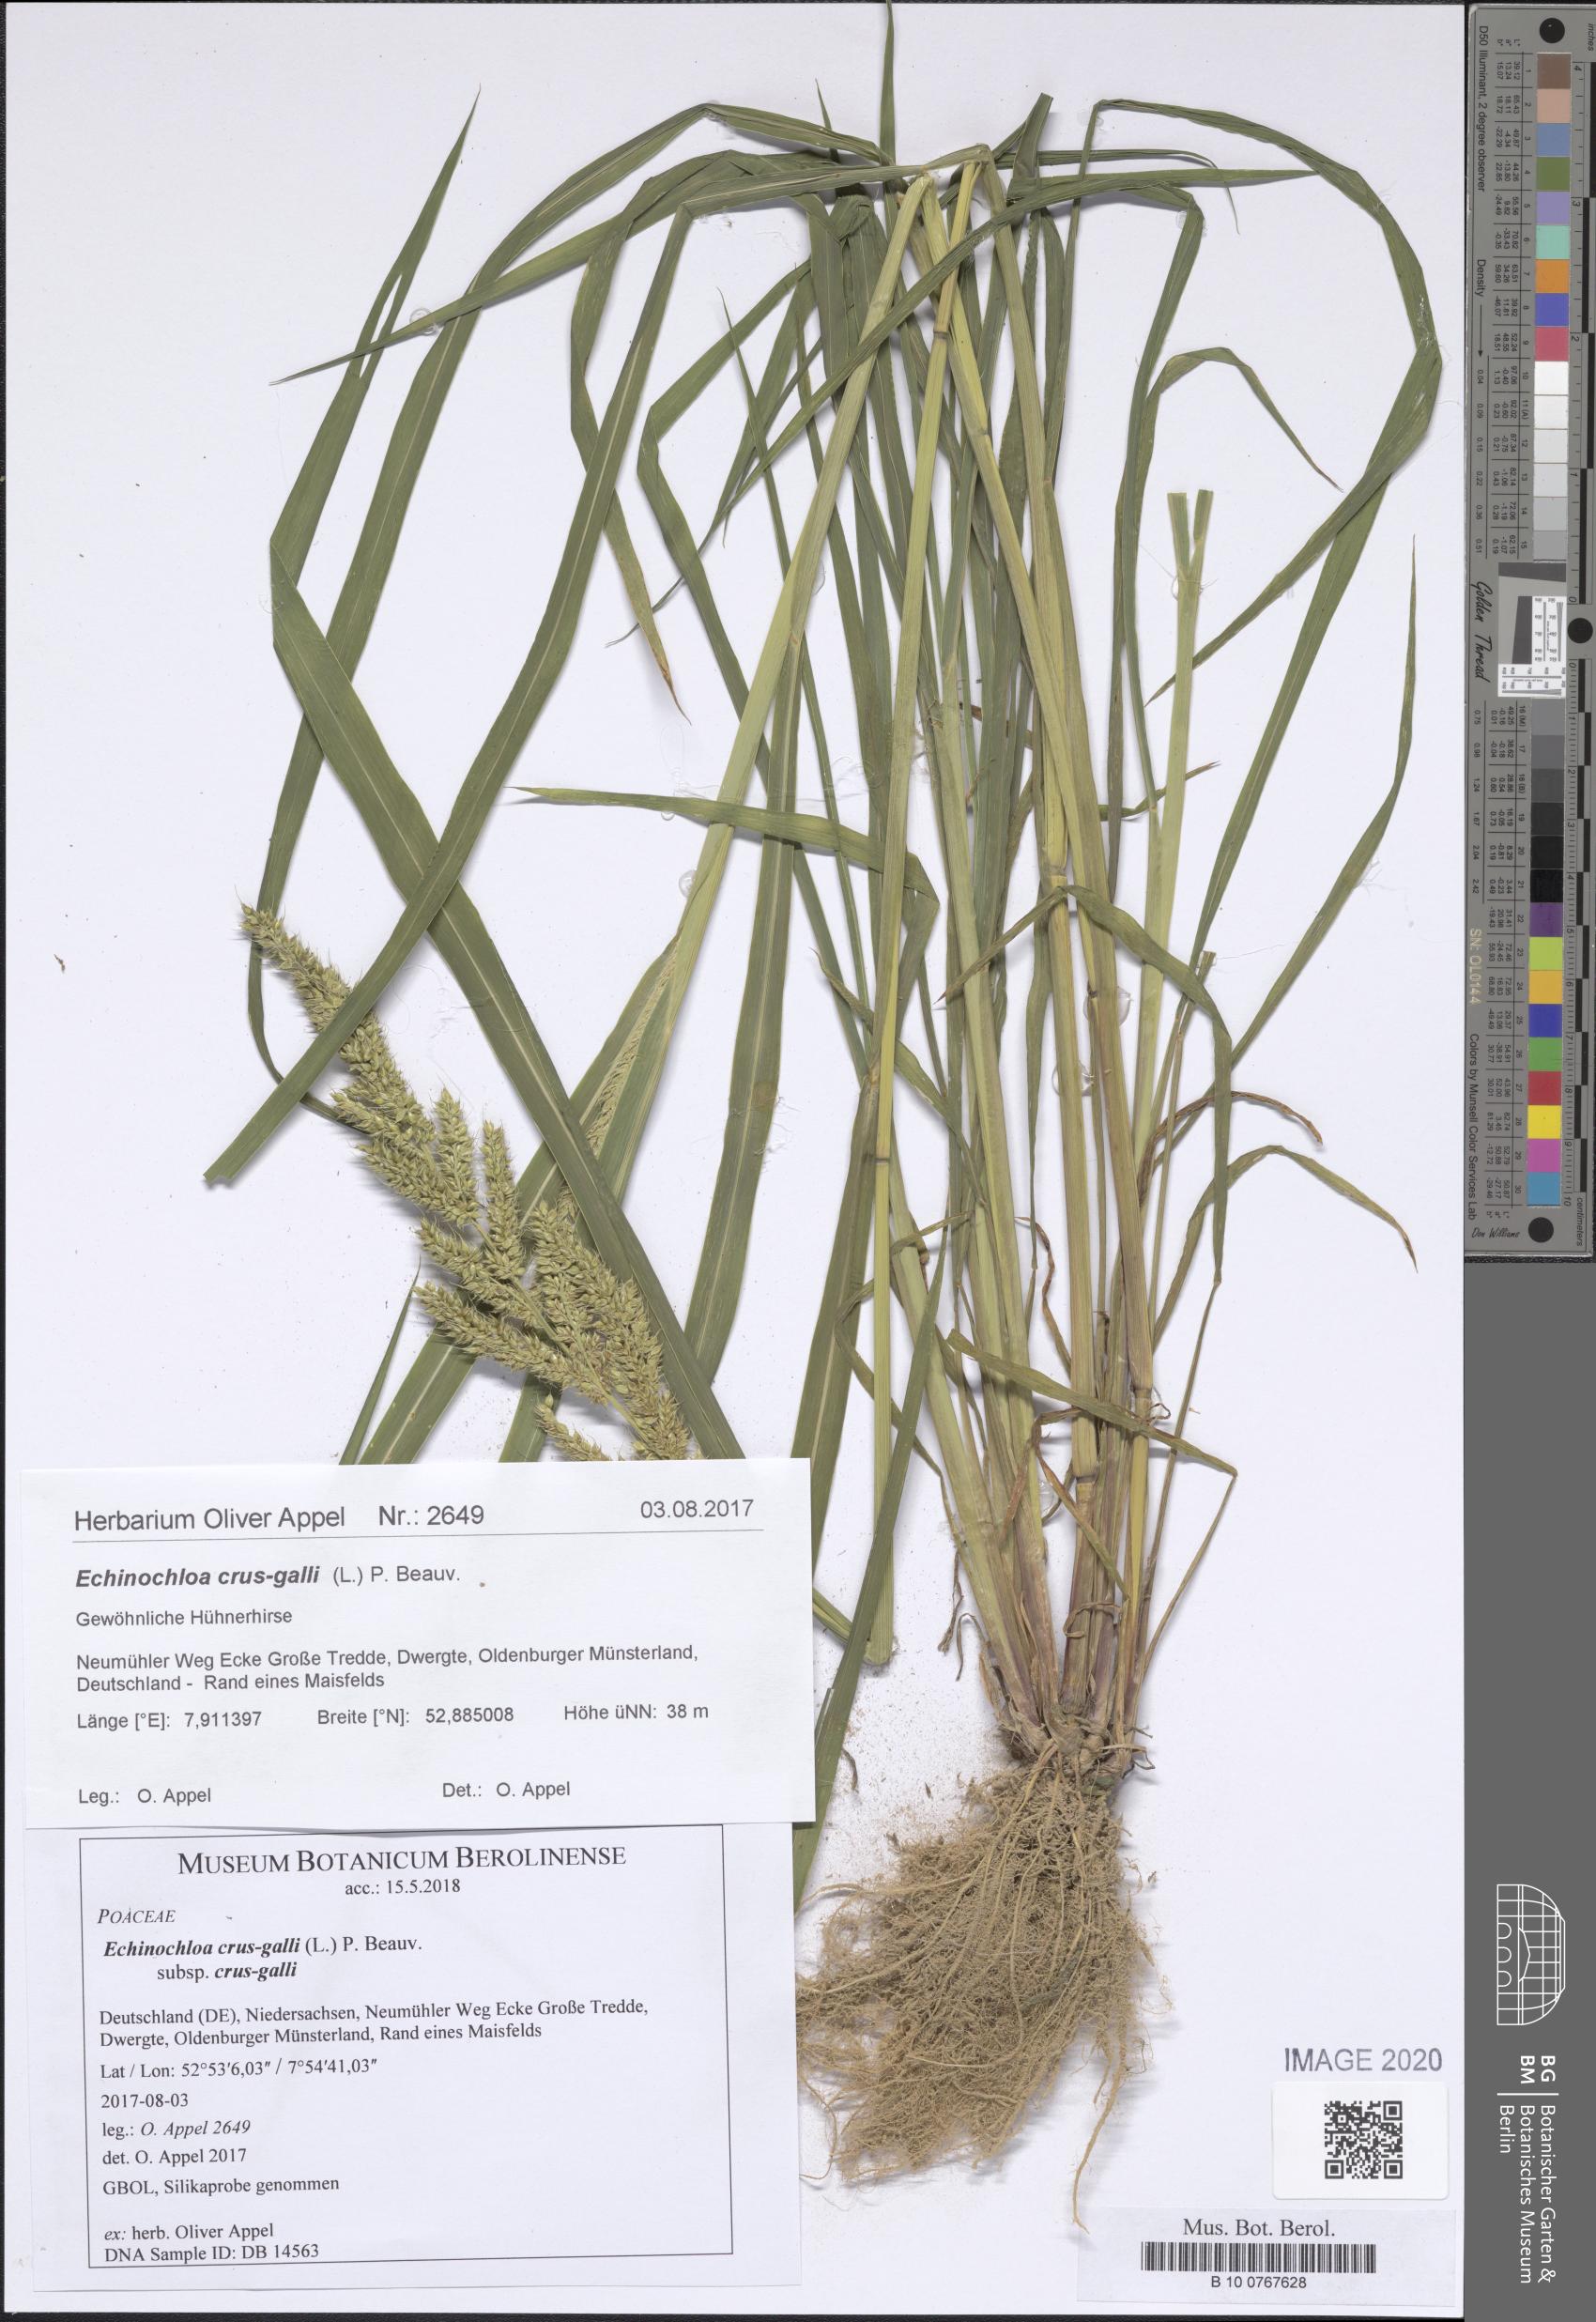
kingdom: Plantae
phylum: Tracheophyta
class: Liliopsida
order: Poales
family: Poaceae
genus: Echinochloa
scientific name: Echinochloa crus-galli
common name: Cockspur
